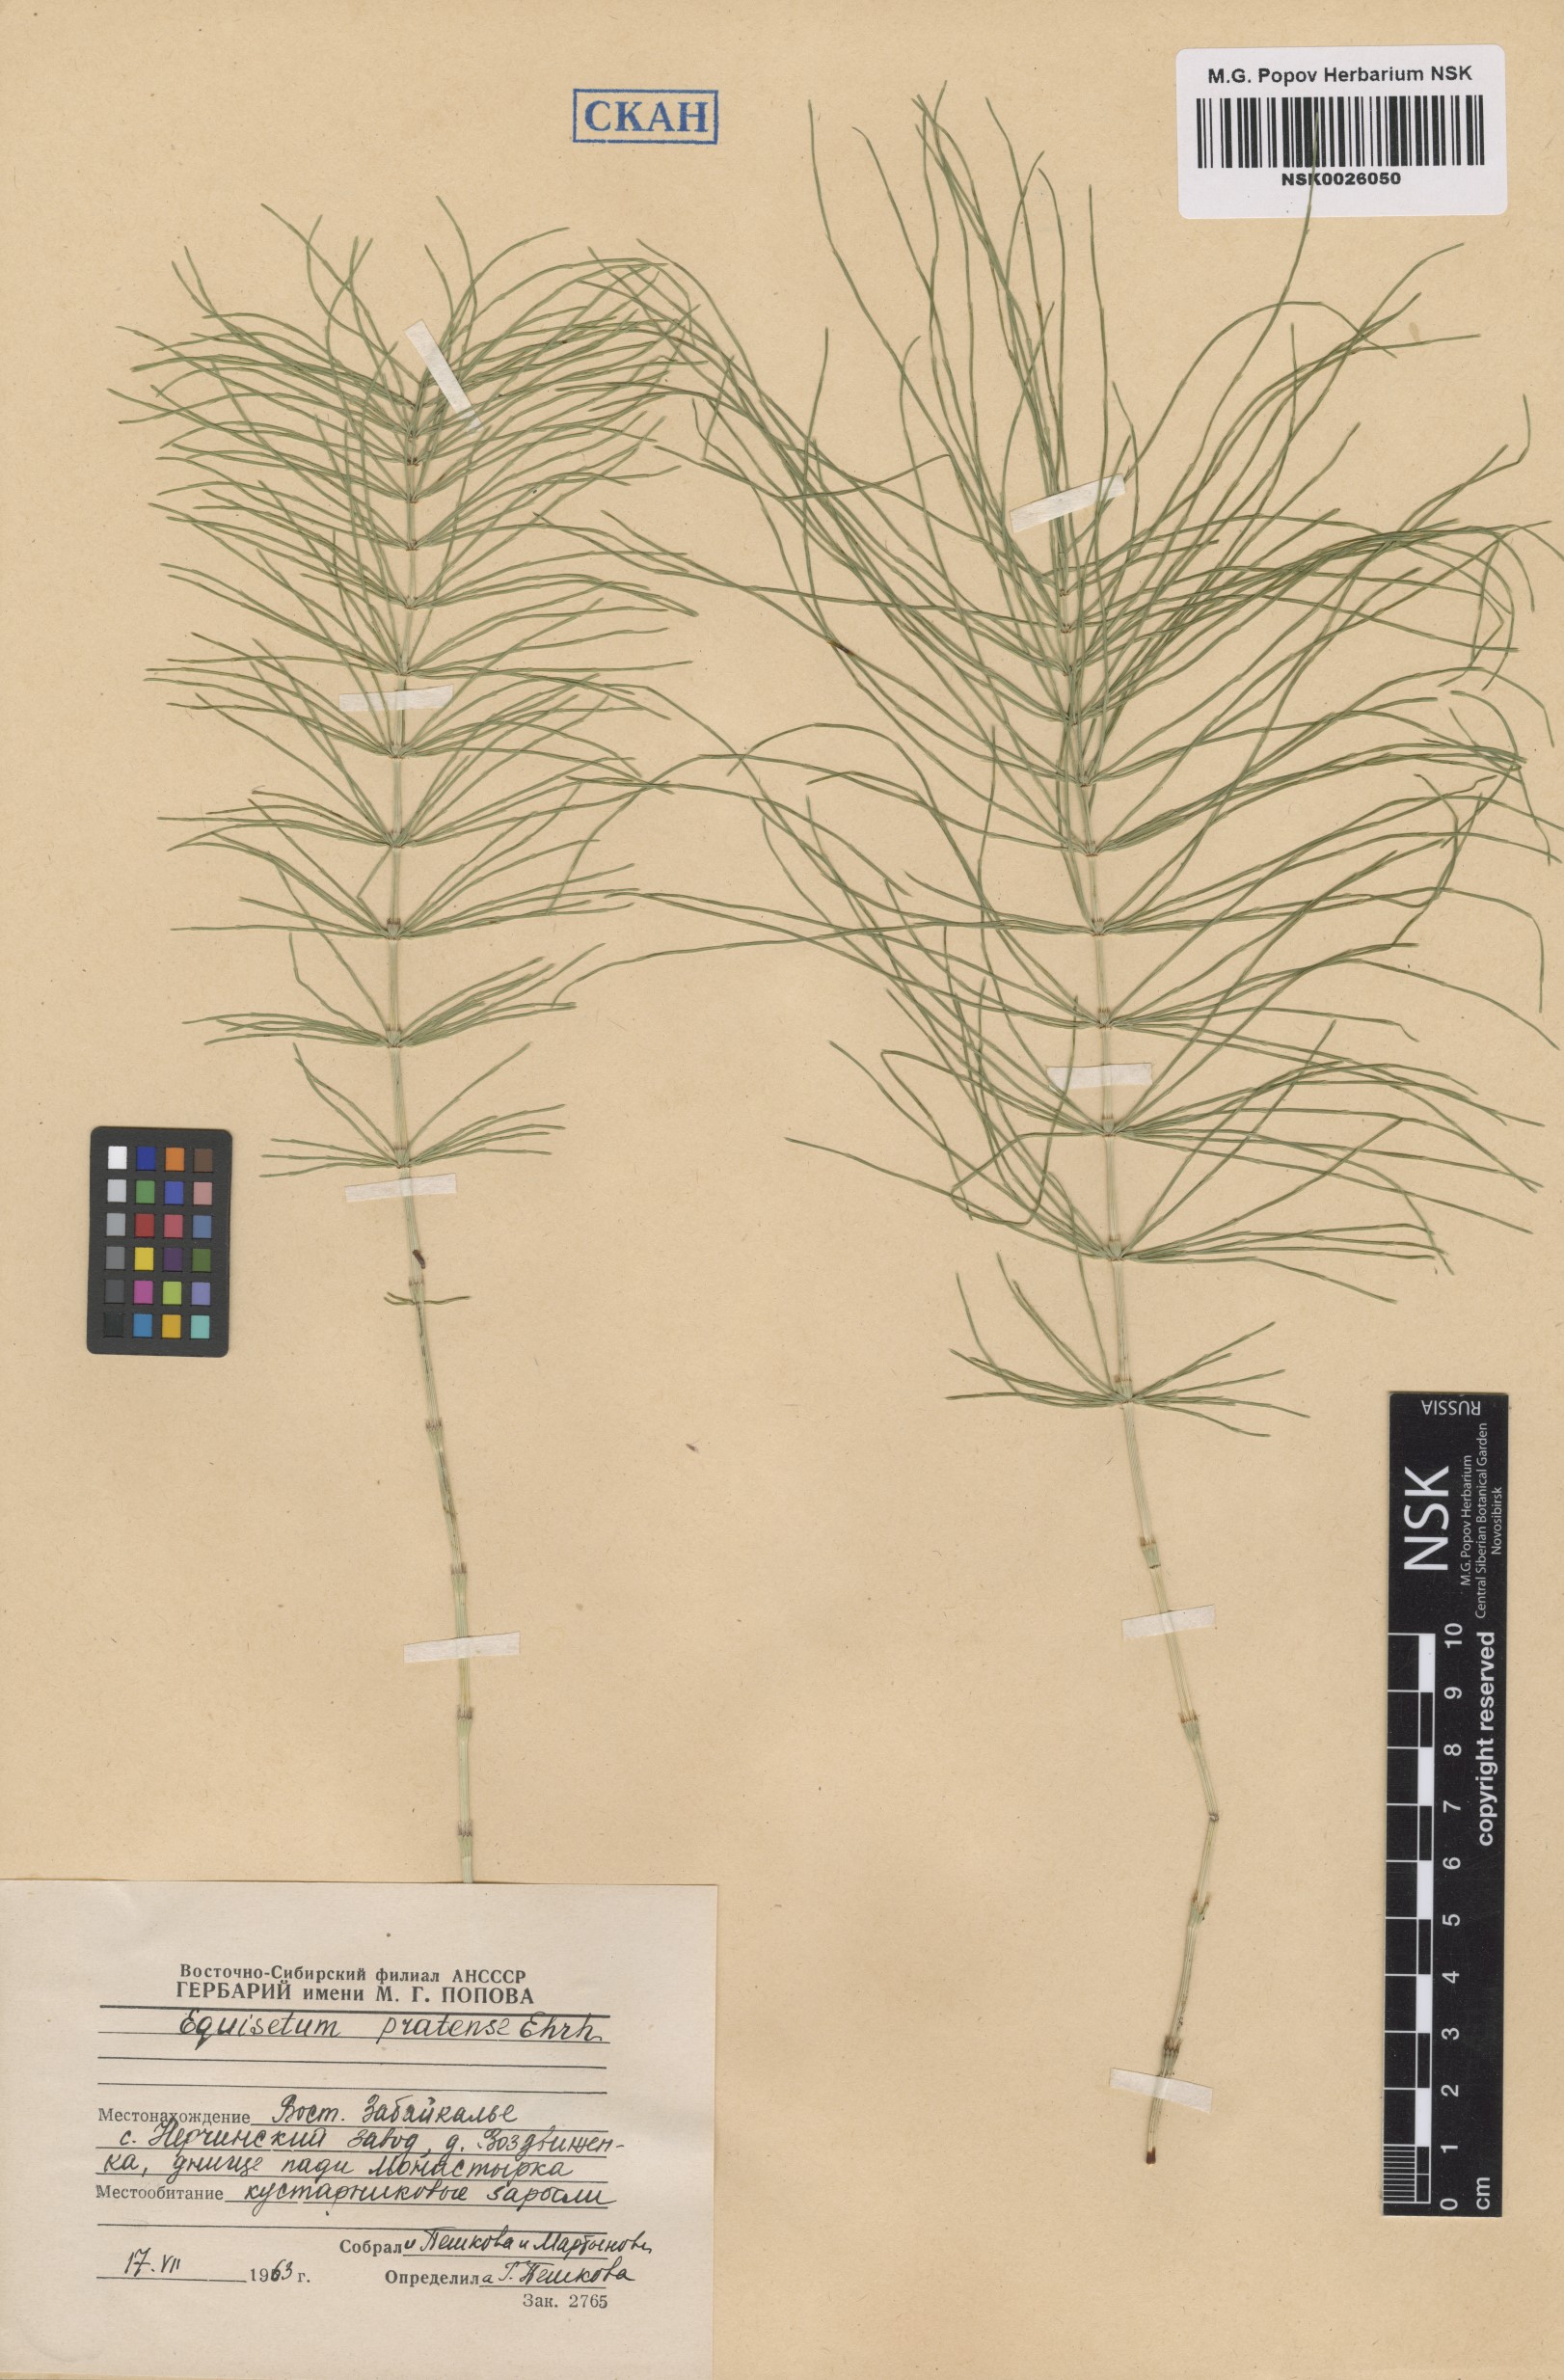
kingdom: Plantae
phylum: Tracheophyta
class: Polypodiopsida
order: Equisetales
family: Equisetaceae
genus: Equisetum
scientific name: Equisetum pratense
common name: Meadow horsetail
